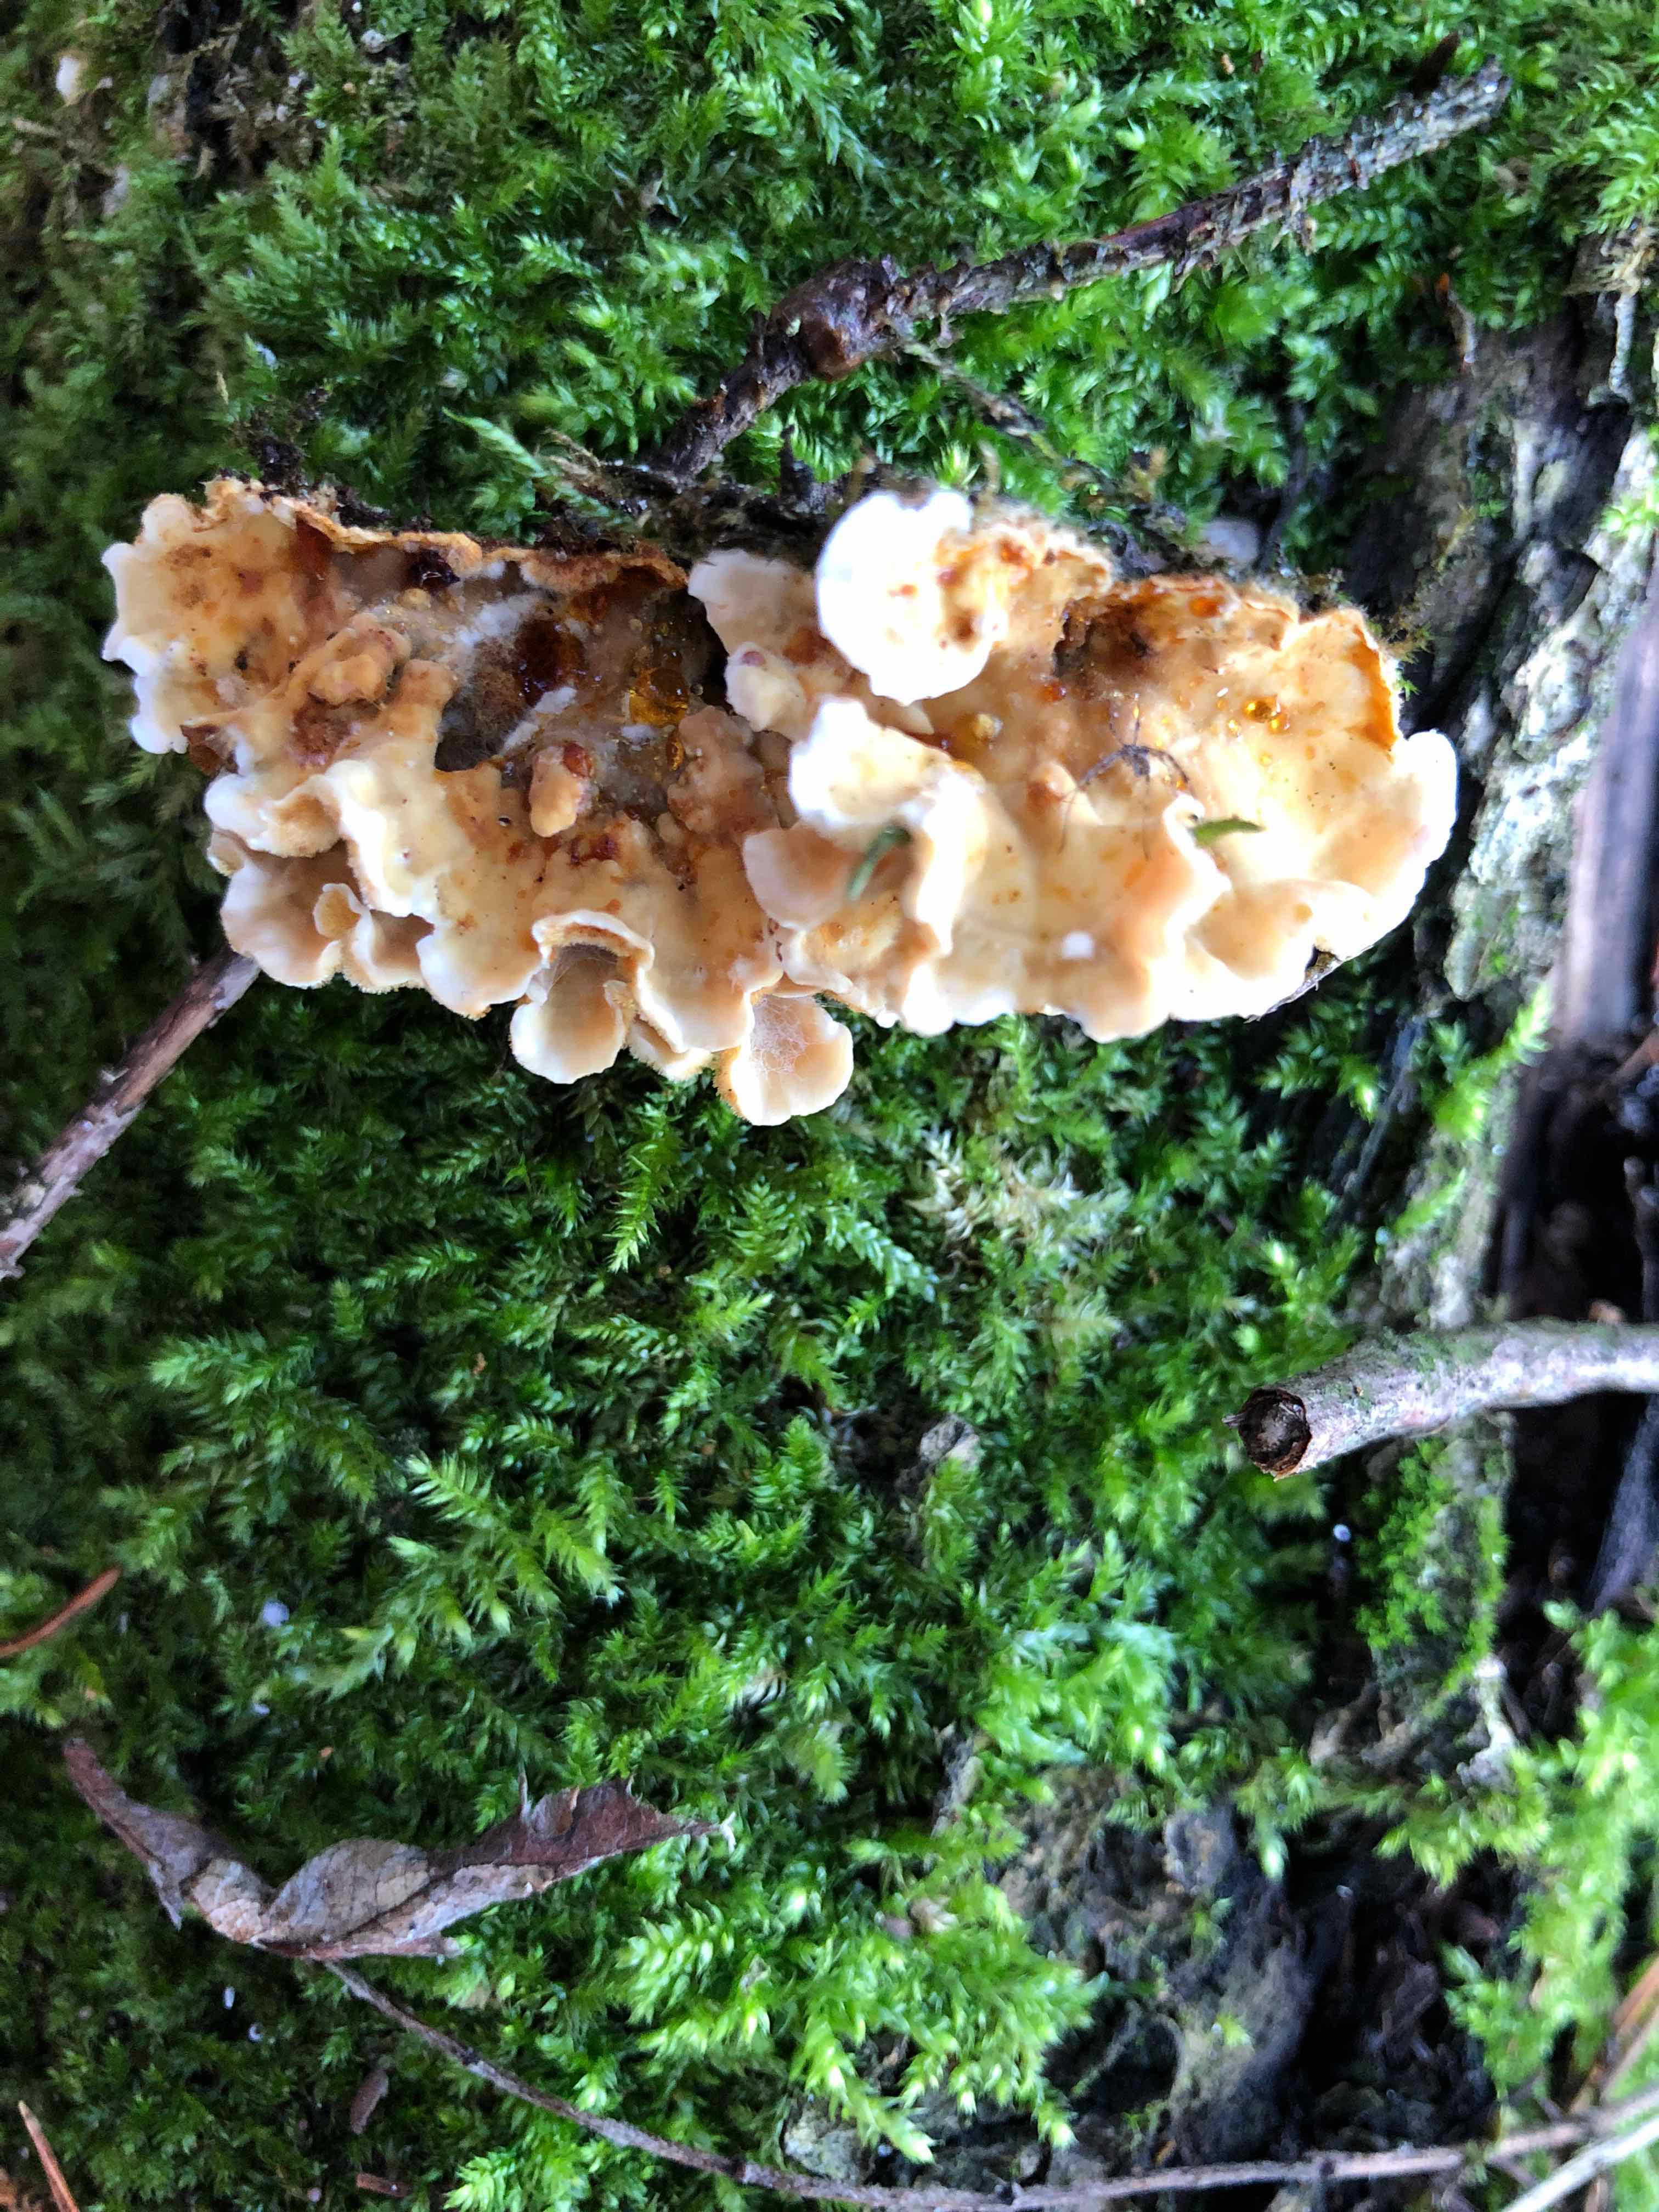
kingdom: Fungi
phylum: Basidiomycota
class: Agaricomycetes
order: Russulales
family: Stereaceae
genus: Stereum
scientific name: Stereum hirsutum
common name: håret lædersvamp
